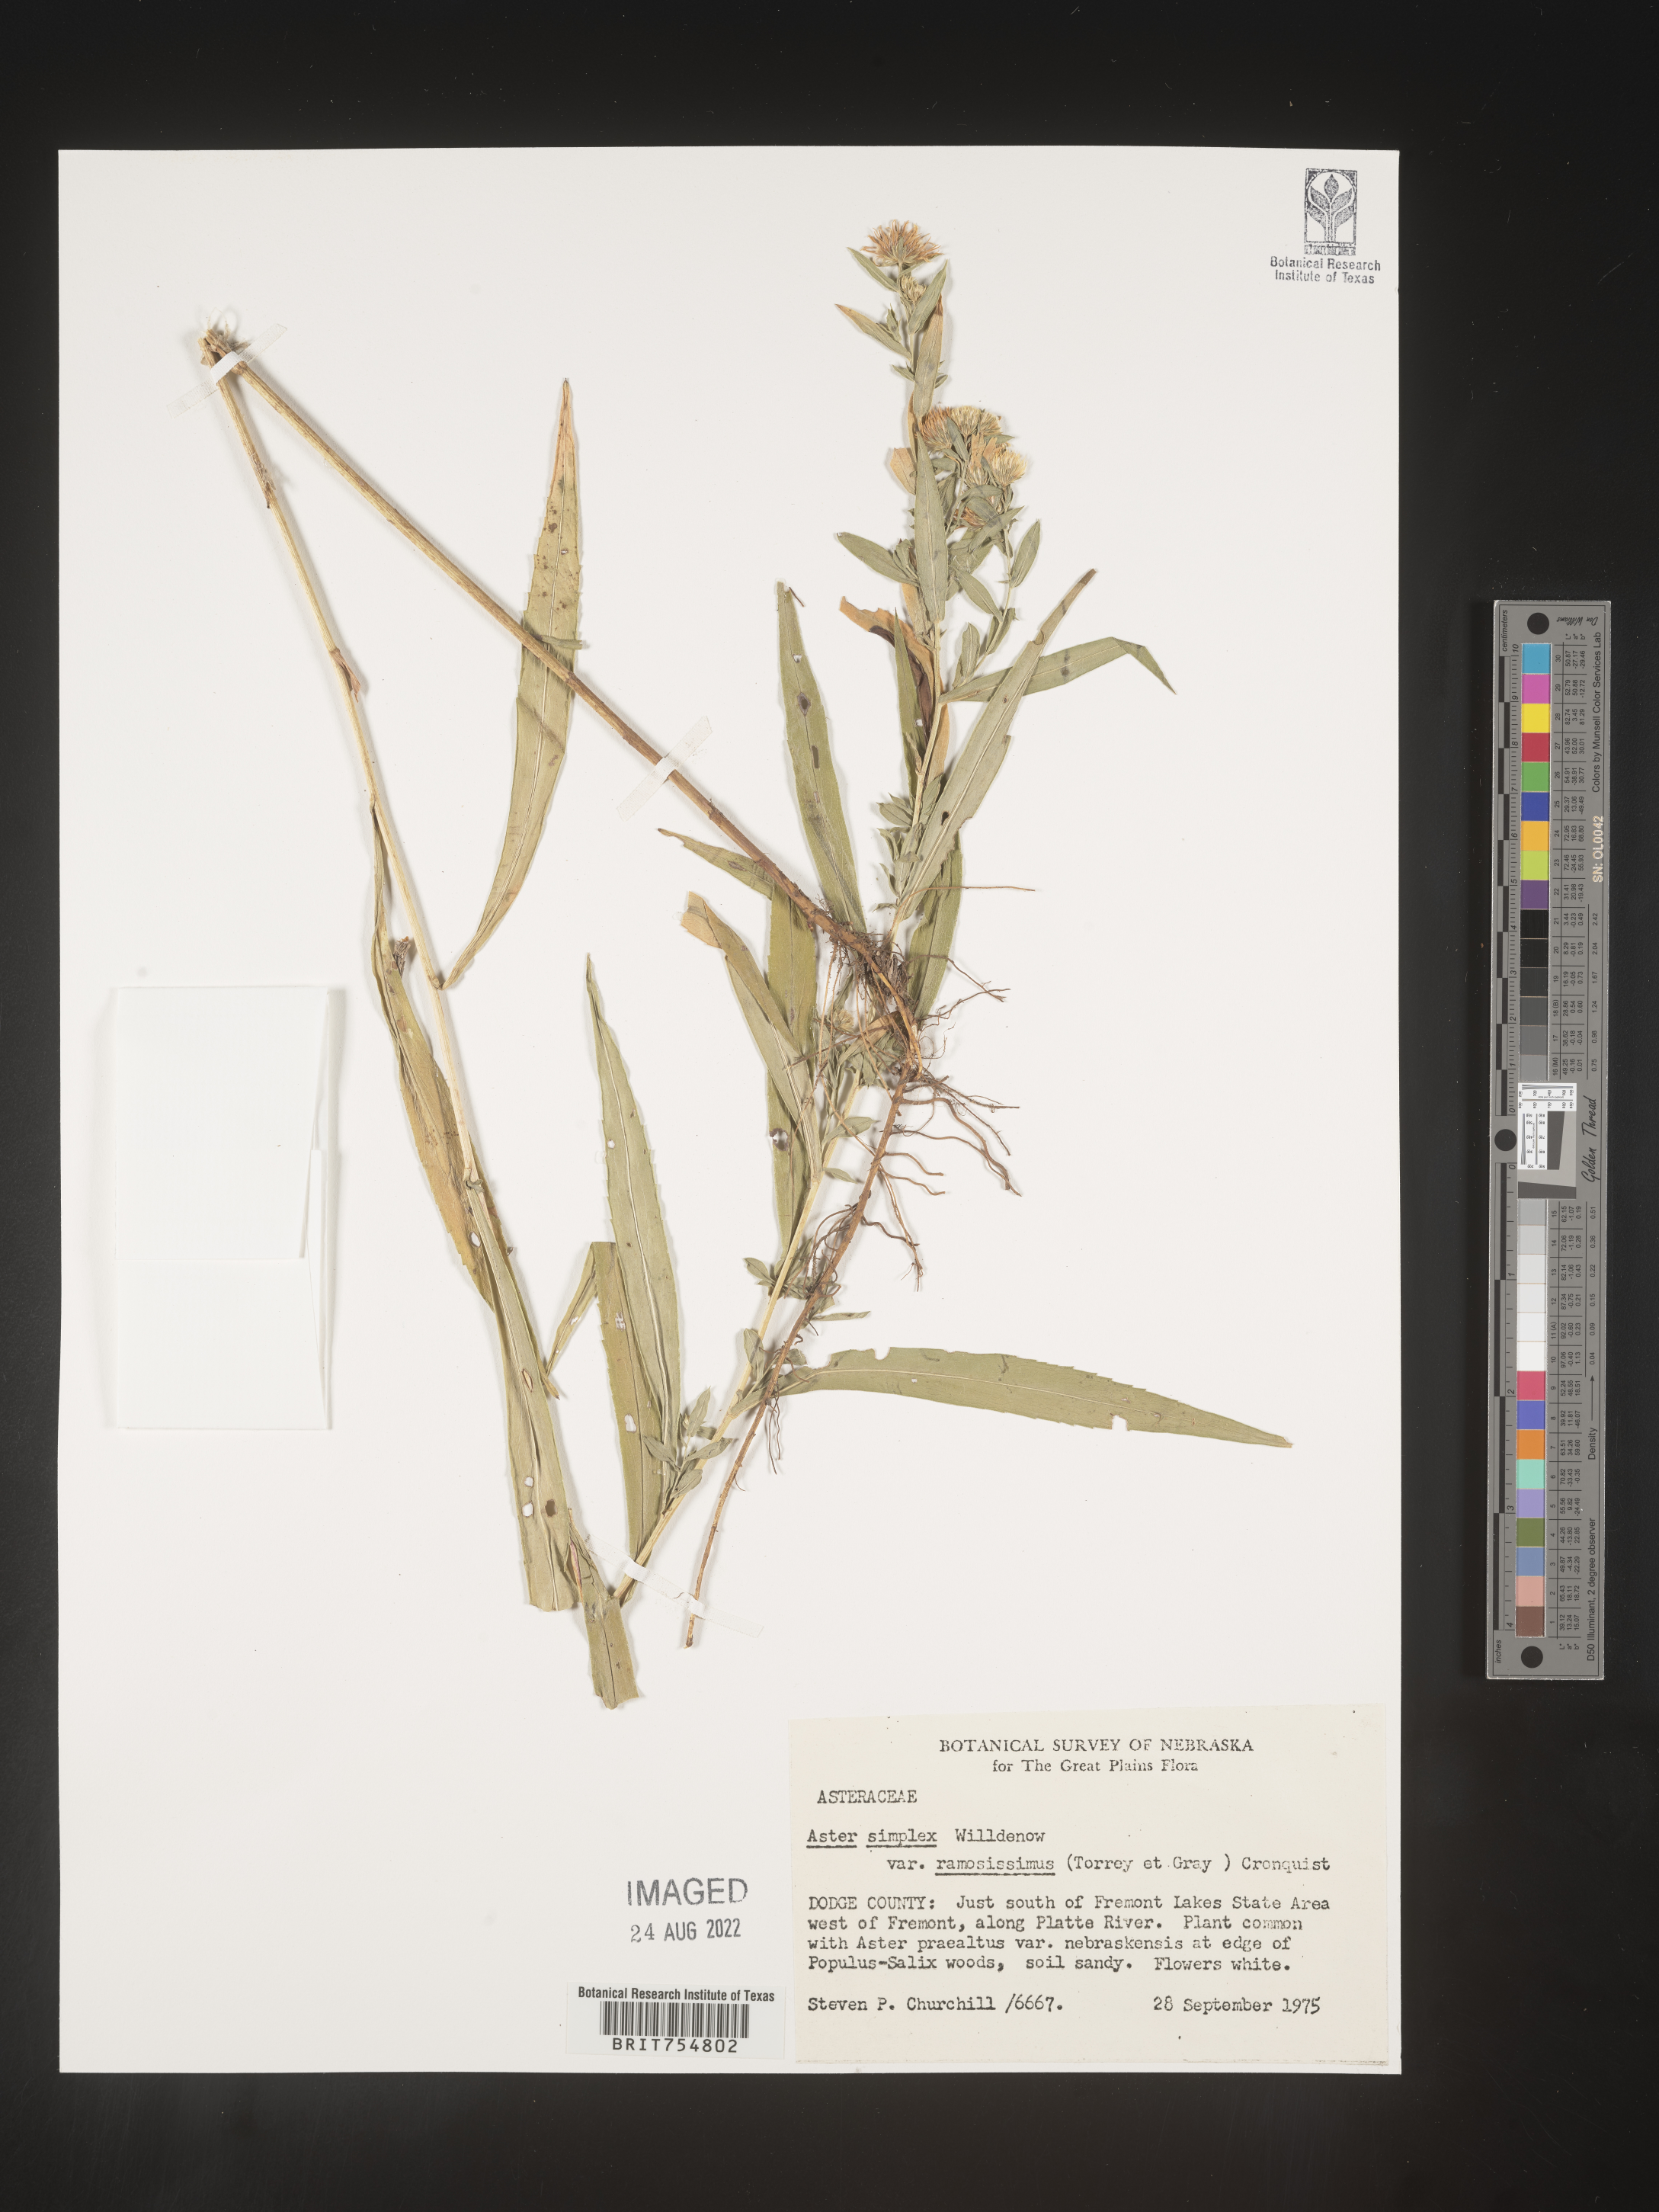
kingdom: Plantae
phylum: Tracheophyta
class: Magnoliopsida
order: Asterales
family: Asteraceae
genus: Symphyotrichum
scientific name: Symphyotrichum
